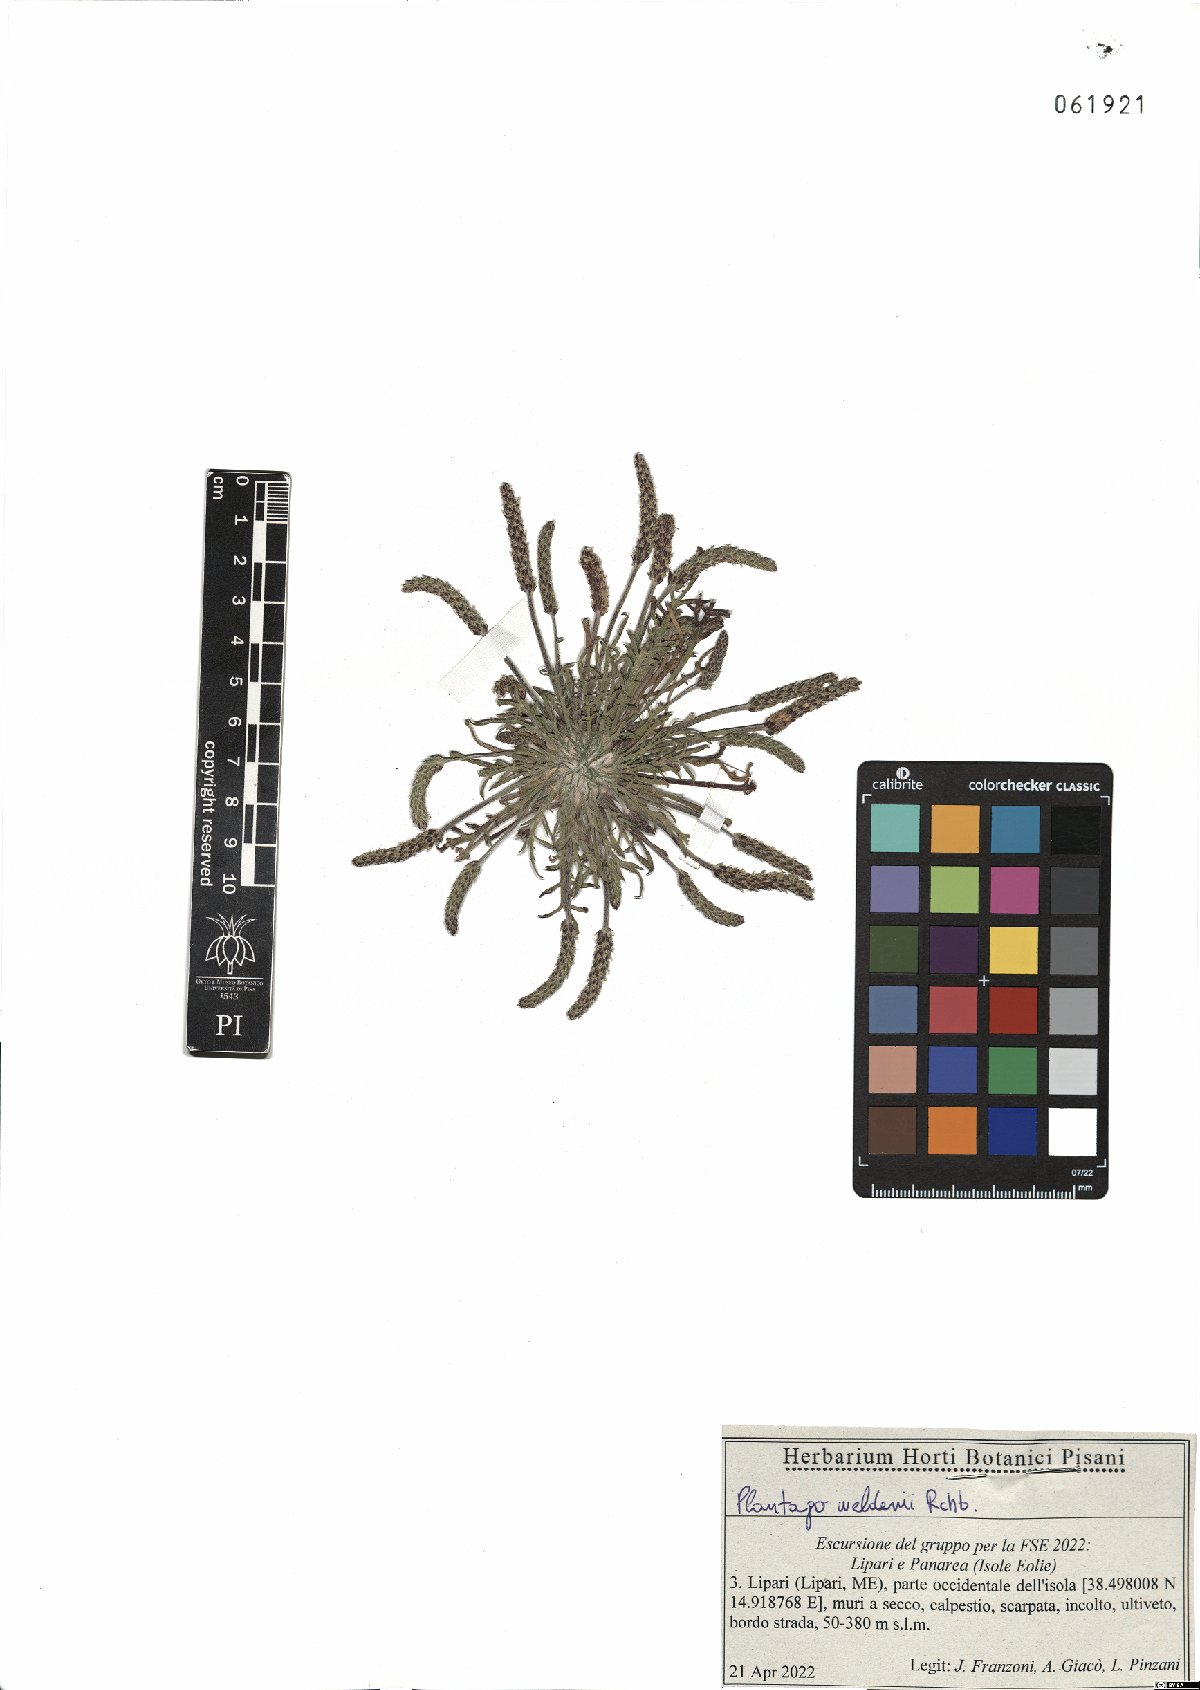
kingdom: Plantae
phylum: Tracheophyta
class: Magnoliopsida
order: Lamiales
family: Plantaginaceae
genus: Plantago
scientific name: Plantago weldenii
